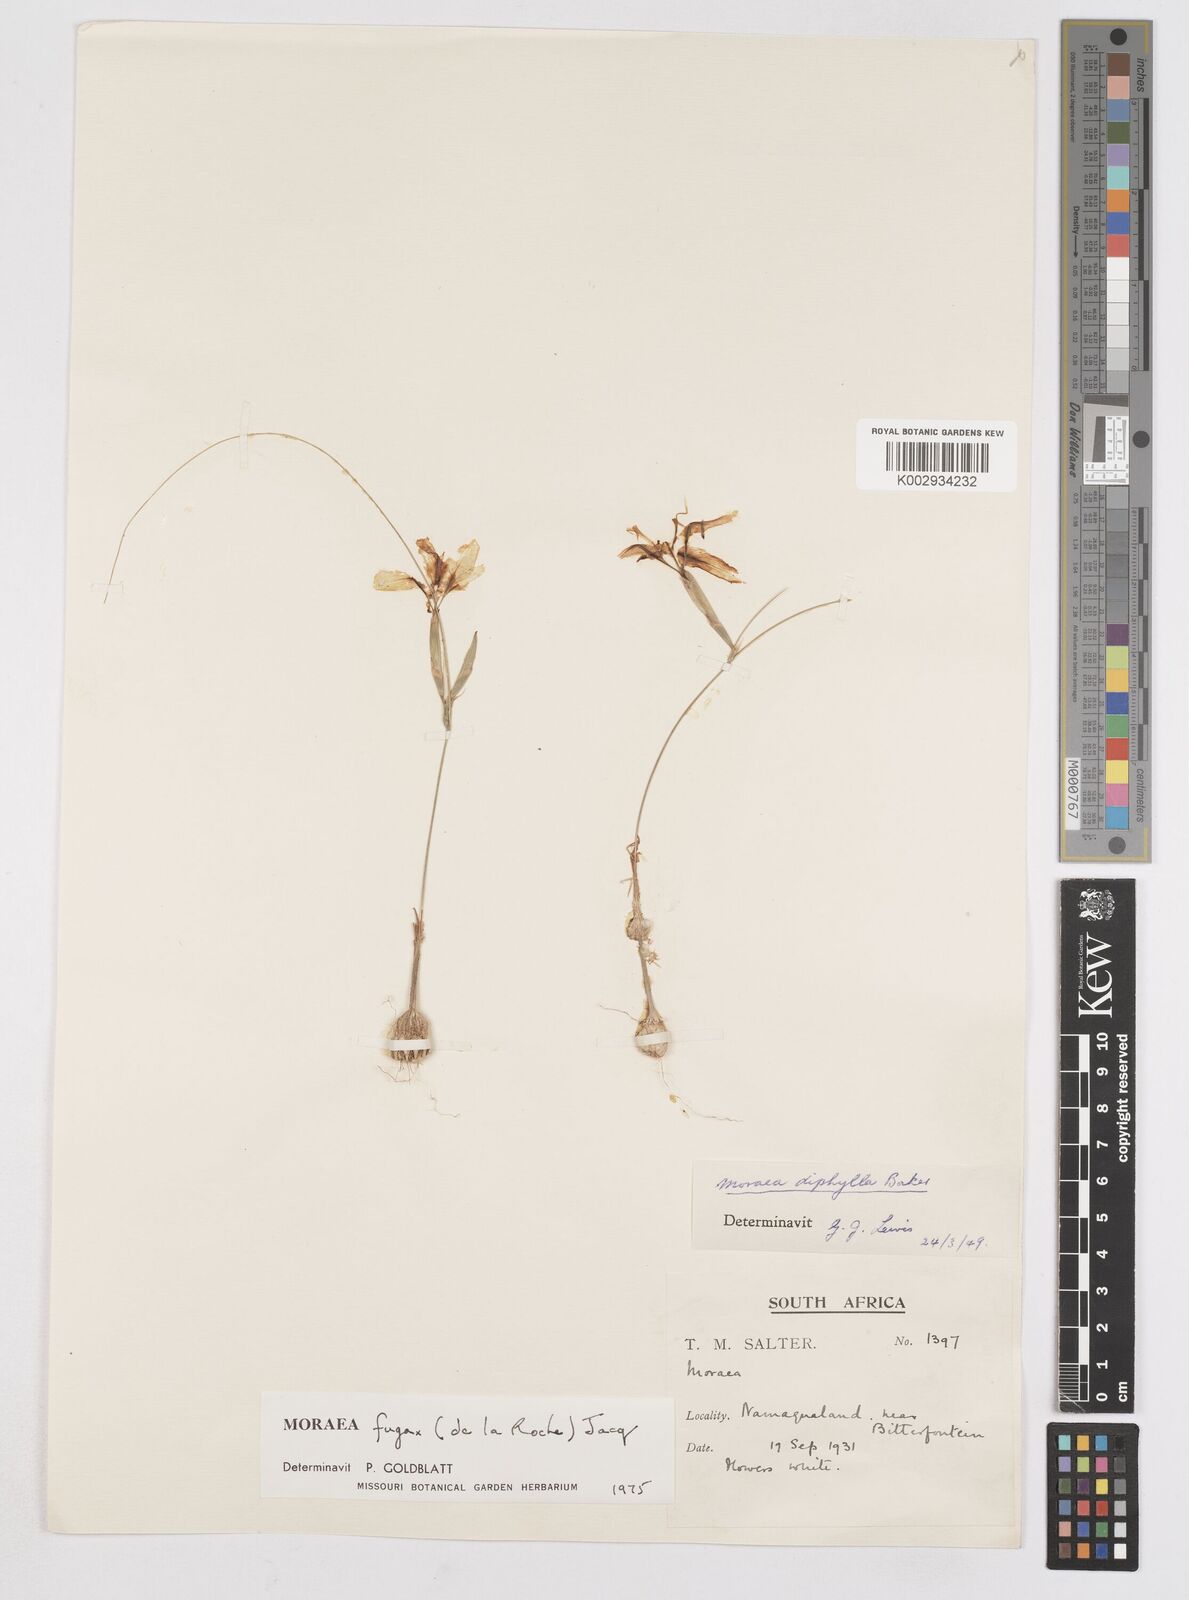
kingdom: Plantae
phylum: Tracheophyta
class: Liliopsida
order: Asparagales
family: Iridaceae
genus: Moraea
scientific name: Moraea fugax
